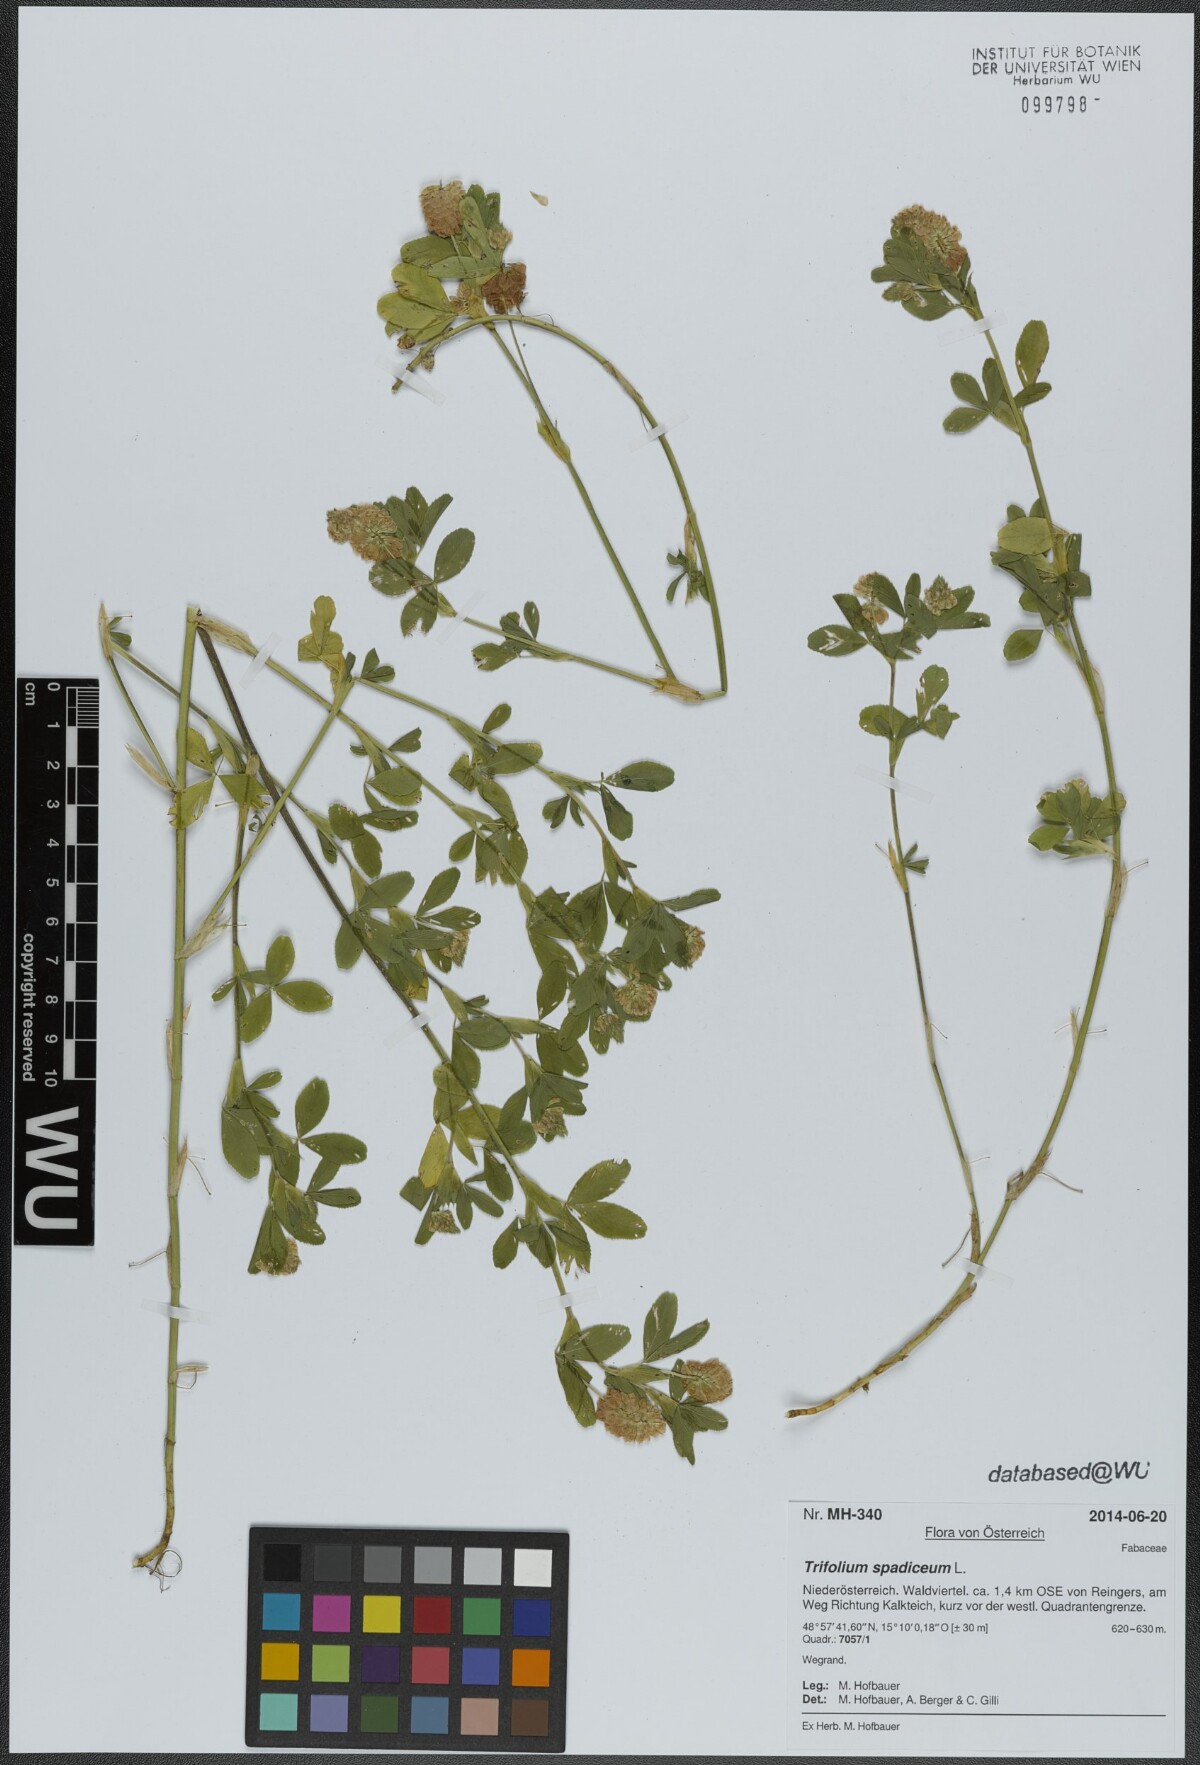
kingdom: Plantae
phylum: Tracheophyta
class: Magnoliopsida
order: Fabales
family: Fabaceae
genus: Trifolium
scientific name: Trifolium spadiceum
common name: Brown moor clover
